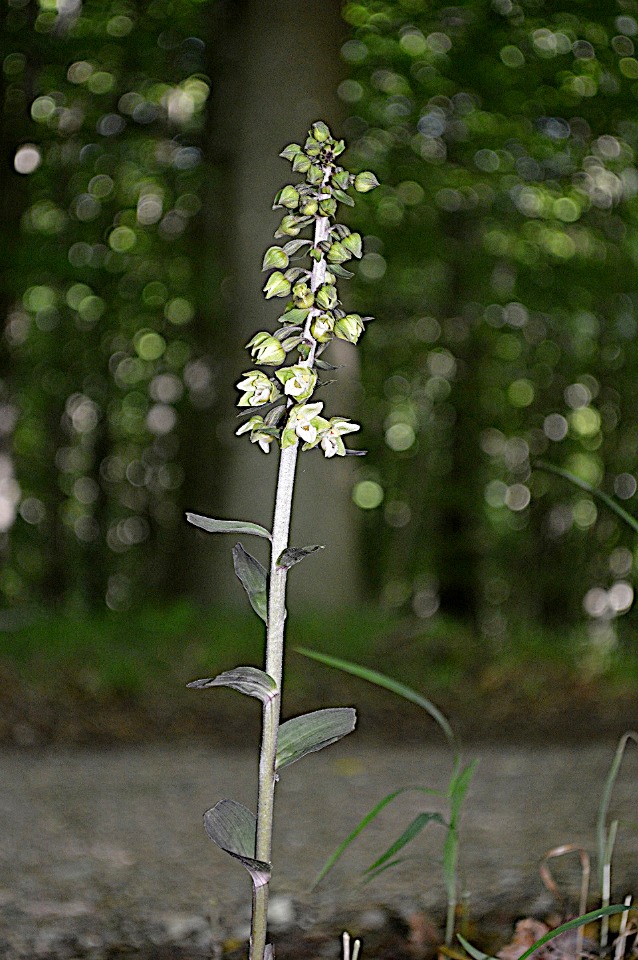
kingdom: Plantae
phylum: Tracheophyta
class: Liliopsida
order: Asparagales
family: Orchidaceae
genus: Epipactis
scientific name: Epipactis purpurata
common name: Tætblomstret hullæbe
